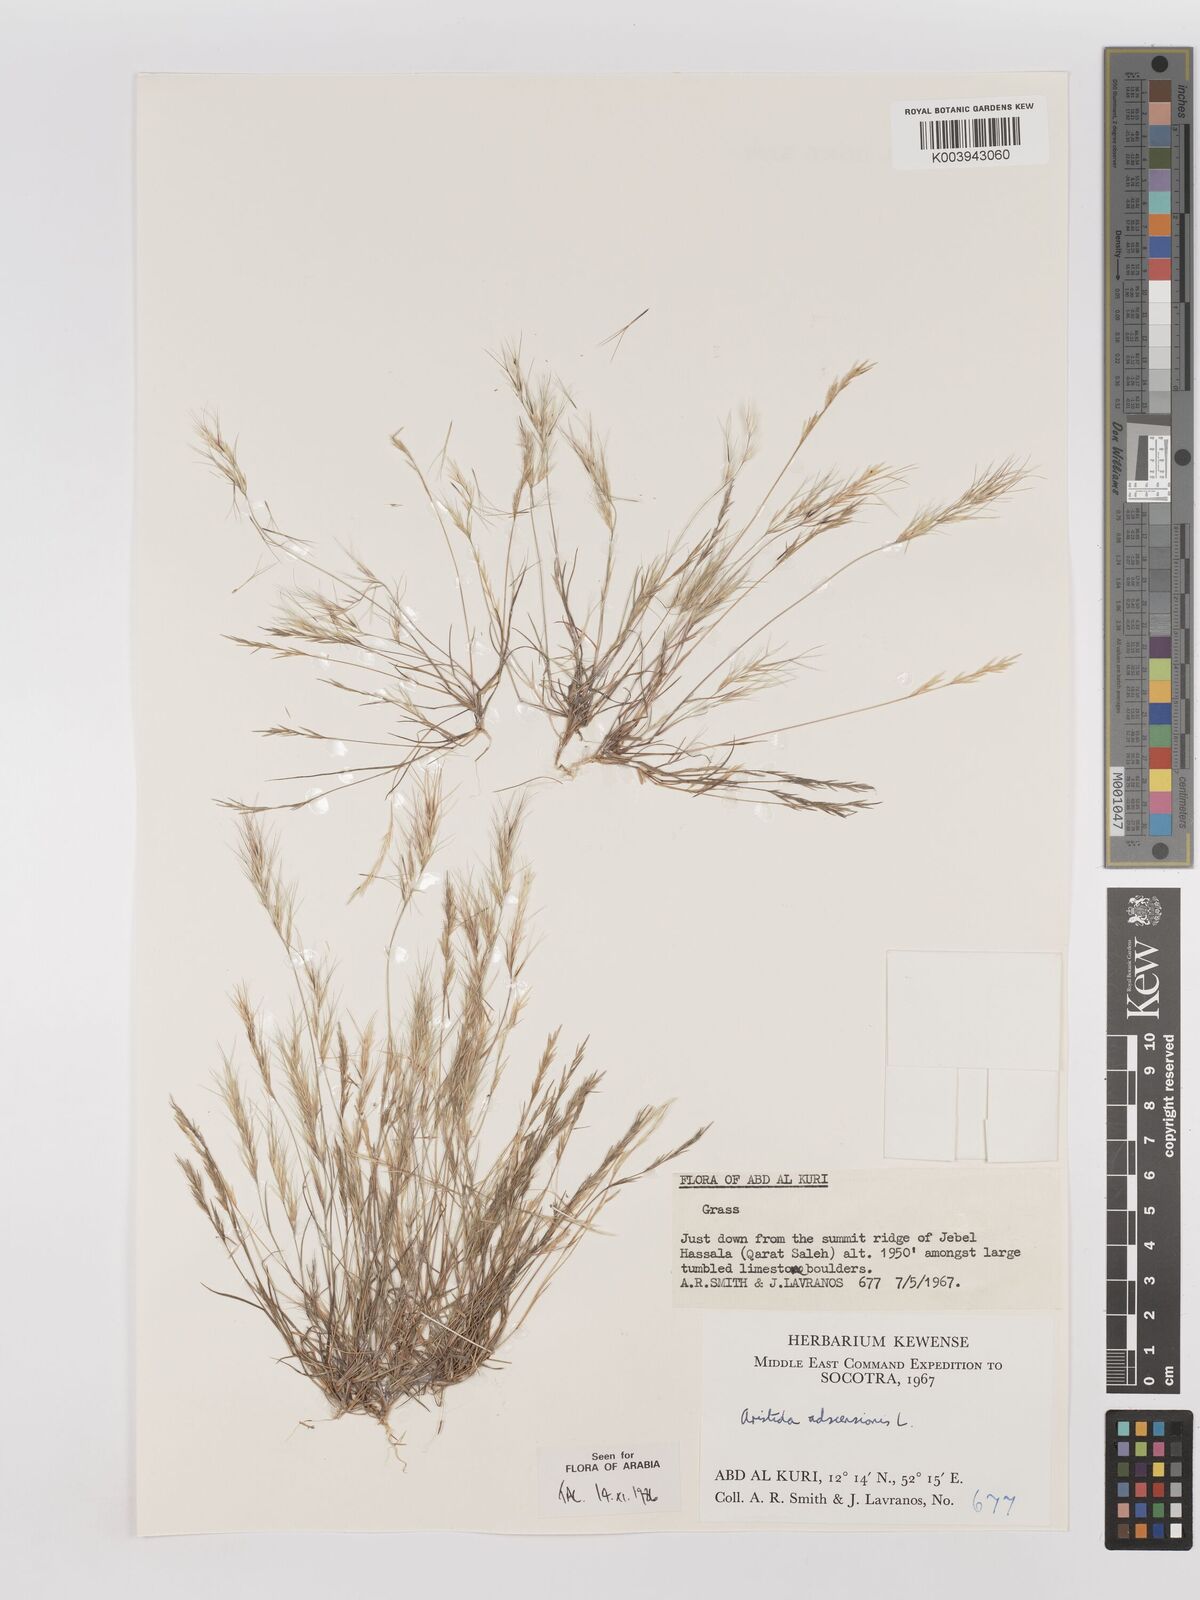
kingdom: Plantae
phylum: Tracheophyta
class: Liliopsida
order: Poales
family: Poaceae
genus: Aristida
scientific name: Aristida adscensionis
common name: Sixweeks threeawn
